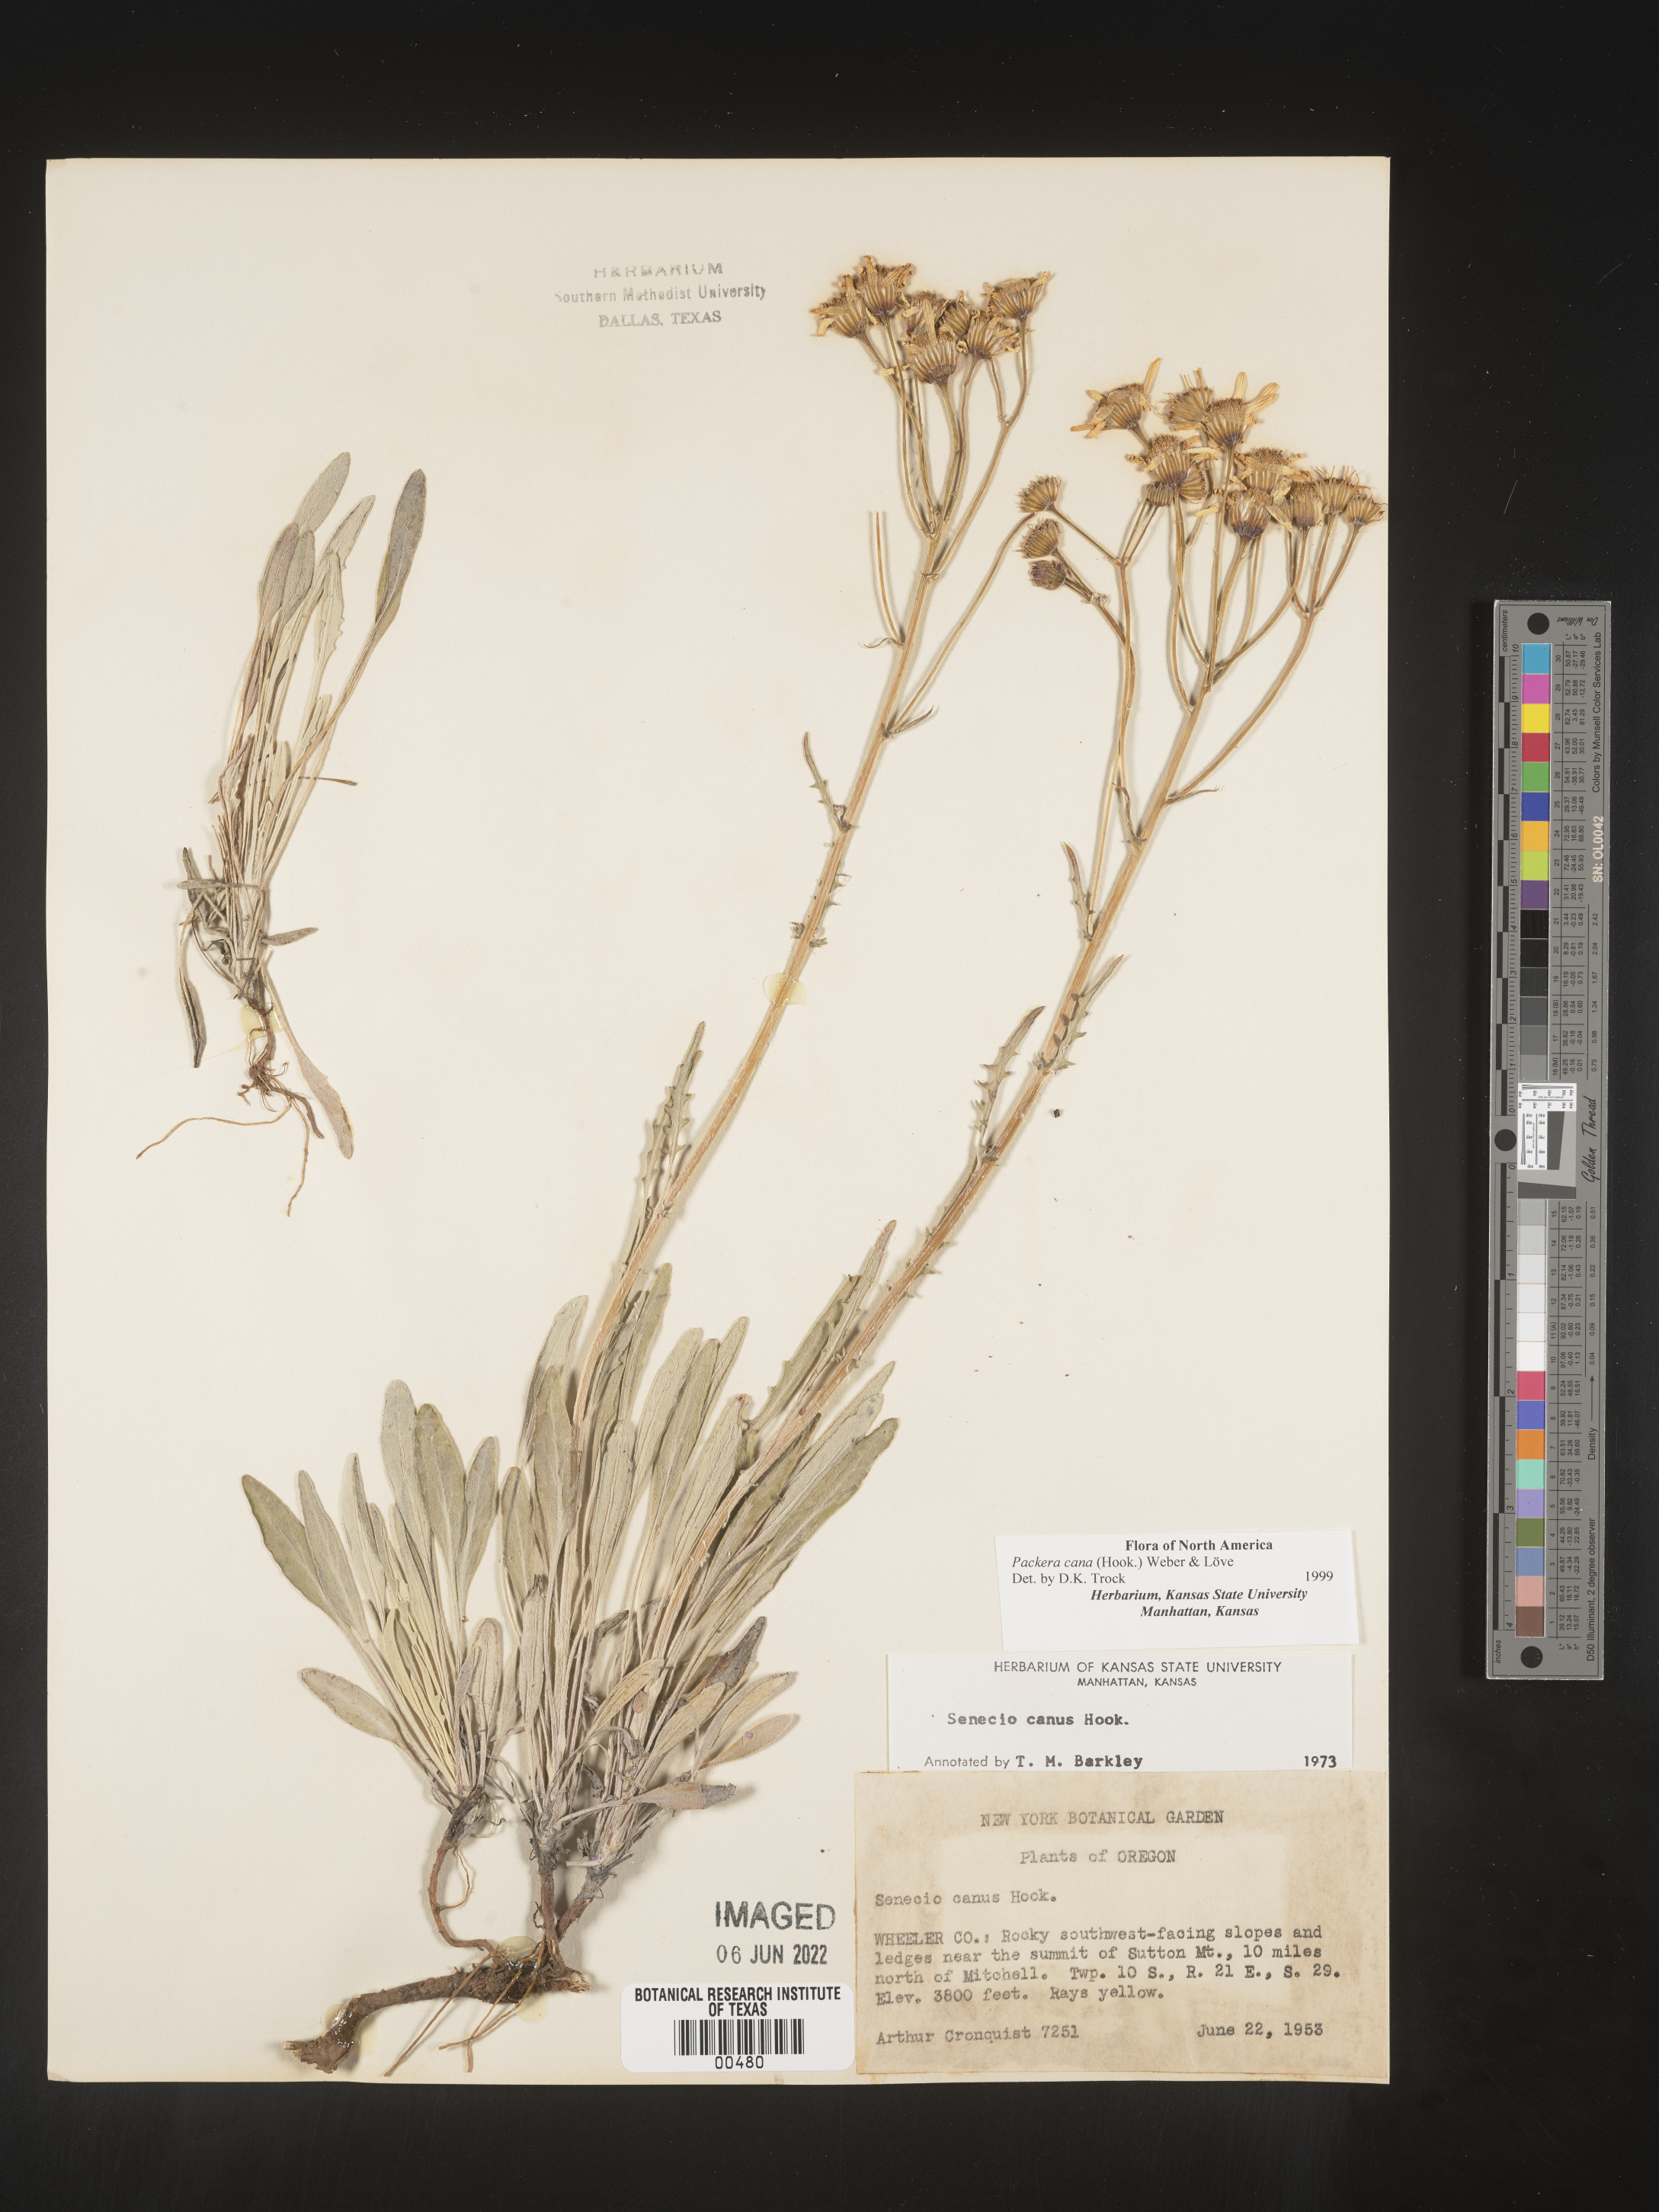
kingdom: Plantae
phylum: Tracheophyta
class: Magnoliopsida
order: Asterales
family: Asteraceae
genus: Packera
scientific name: Packera cana
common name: Woolly groundsel
